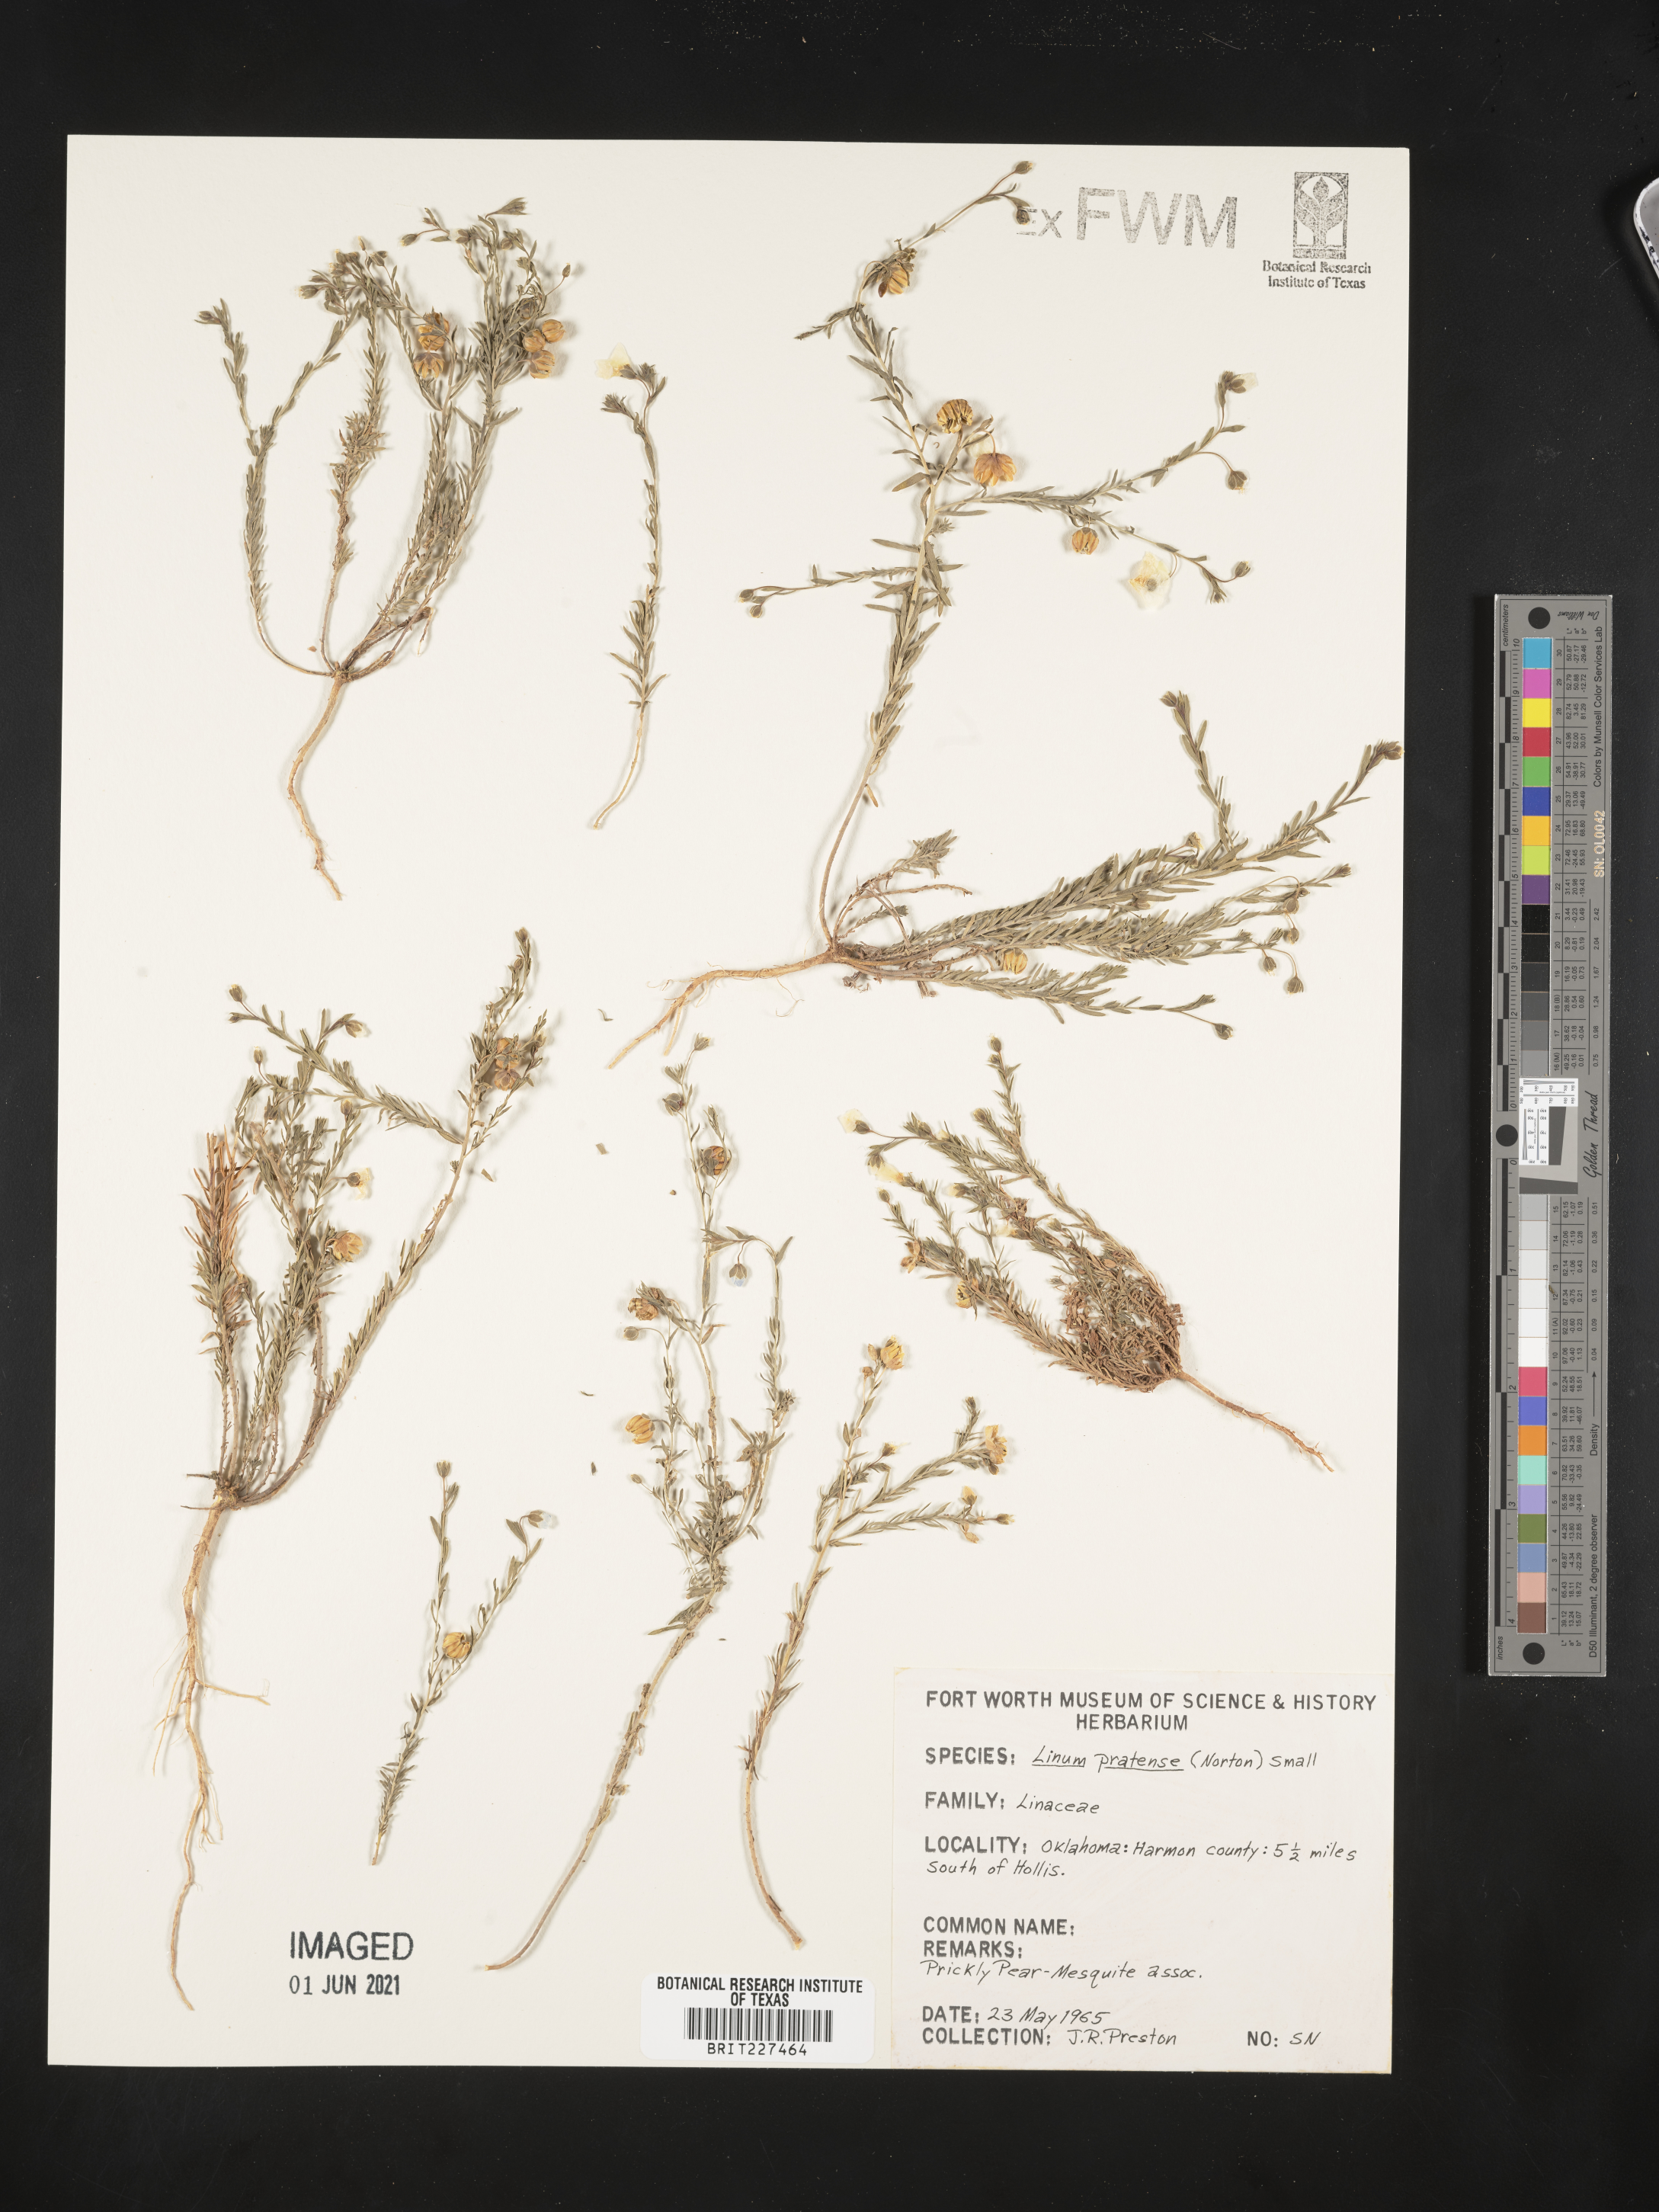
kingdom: Plantae
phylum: Tracheophyta
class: Magnoliopsida
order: Malpighiales
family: Linaceae
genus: Linum
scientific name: Linum pratense
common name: Norton's flax
